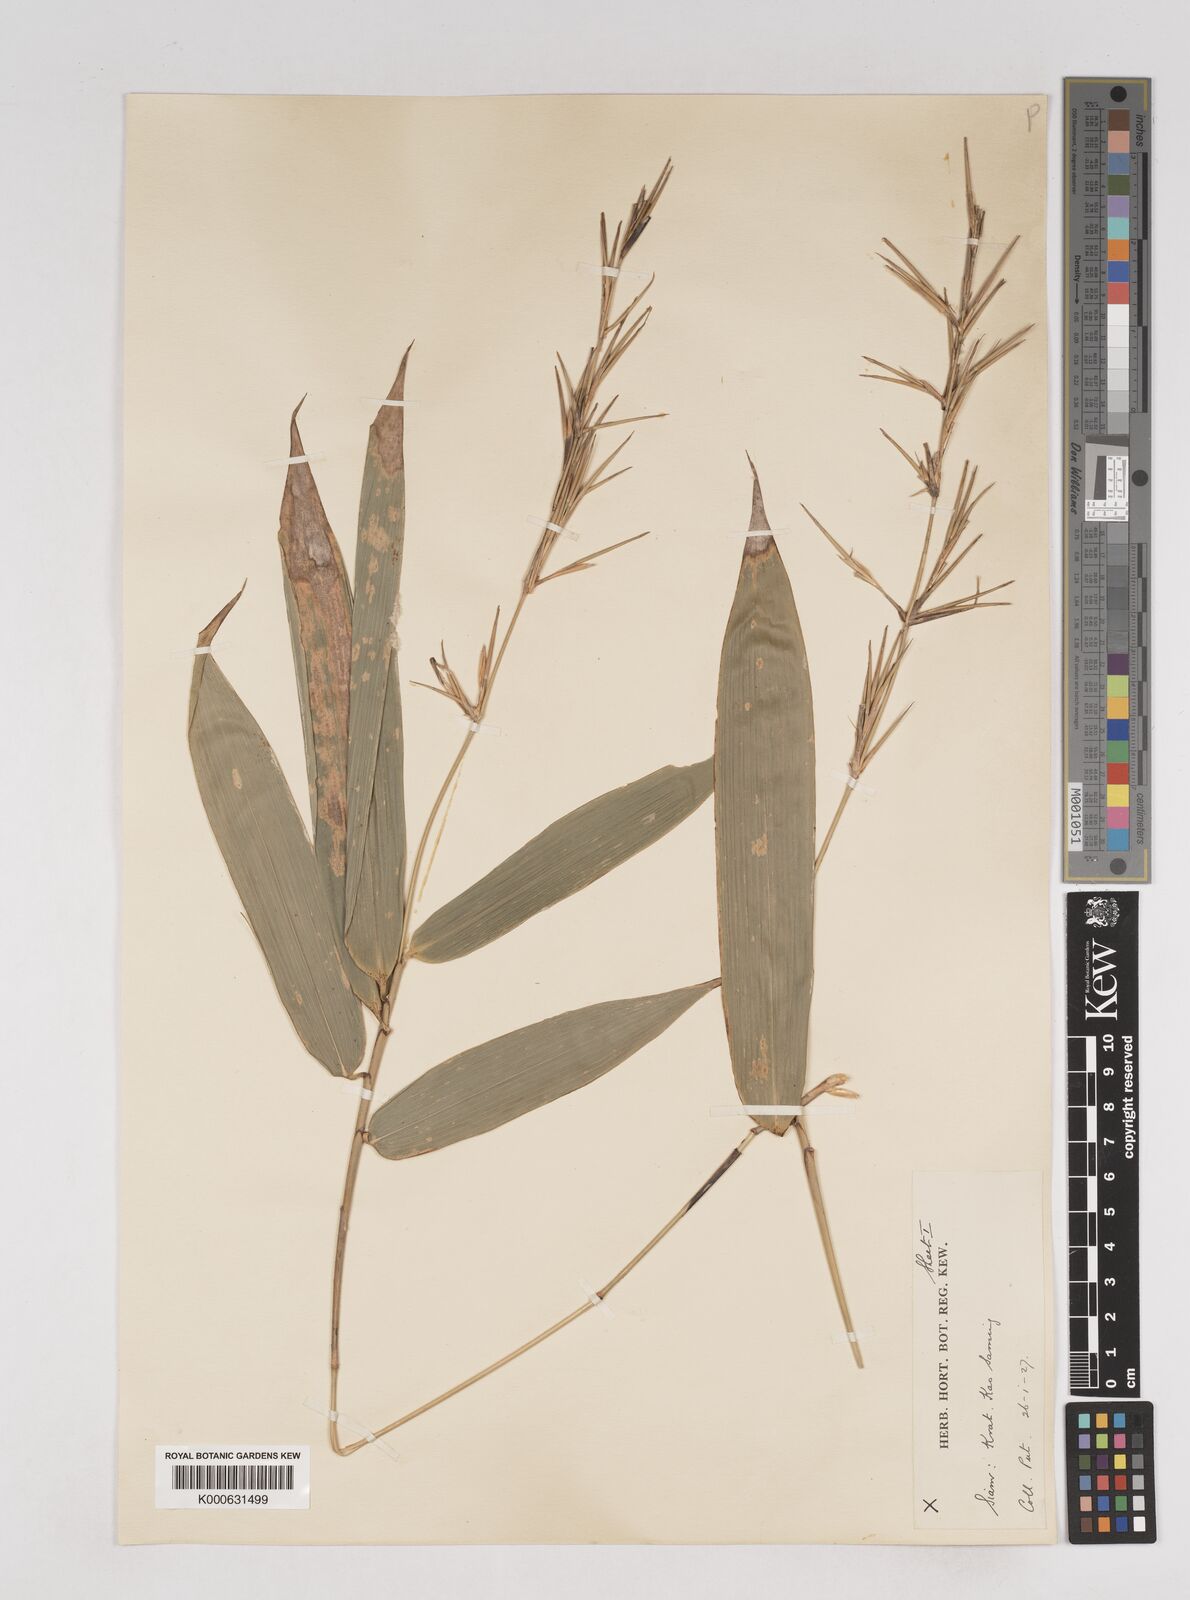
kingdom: Plantae
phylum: Tracheophyta
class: Liliopsida
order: Poales
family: Poaceae
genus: Schizostachyum
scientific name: Schizostachyum
